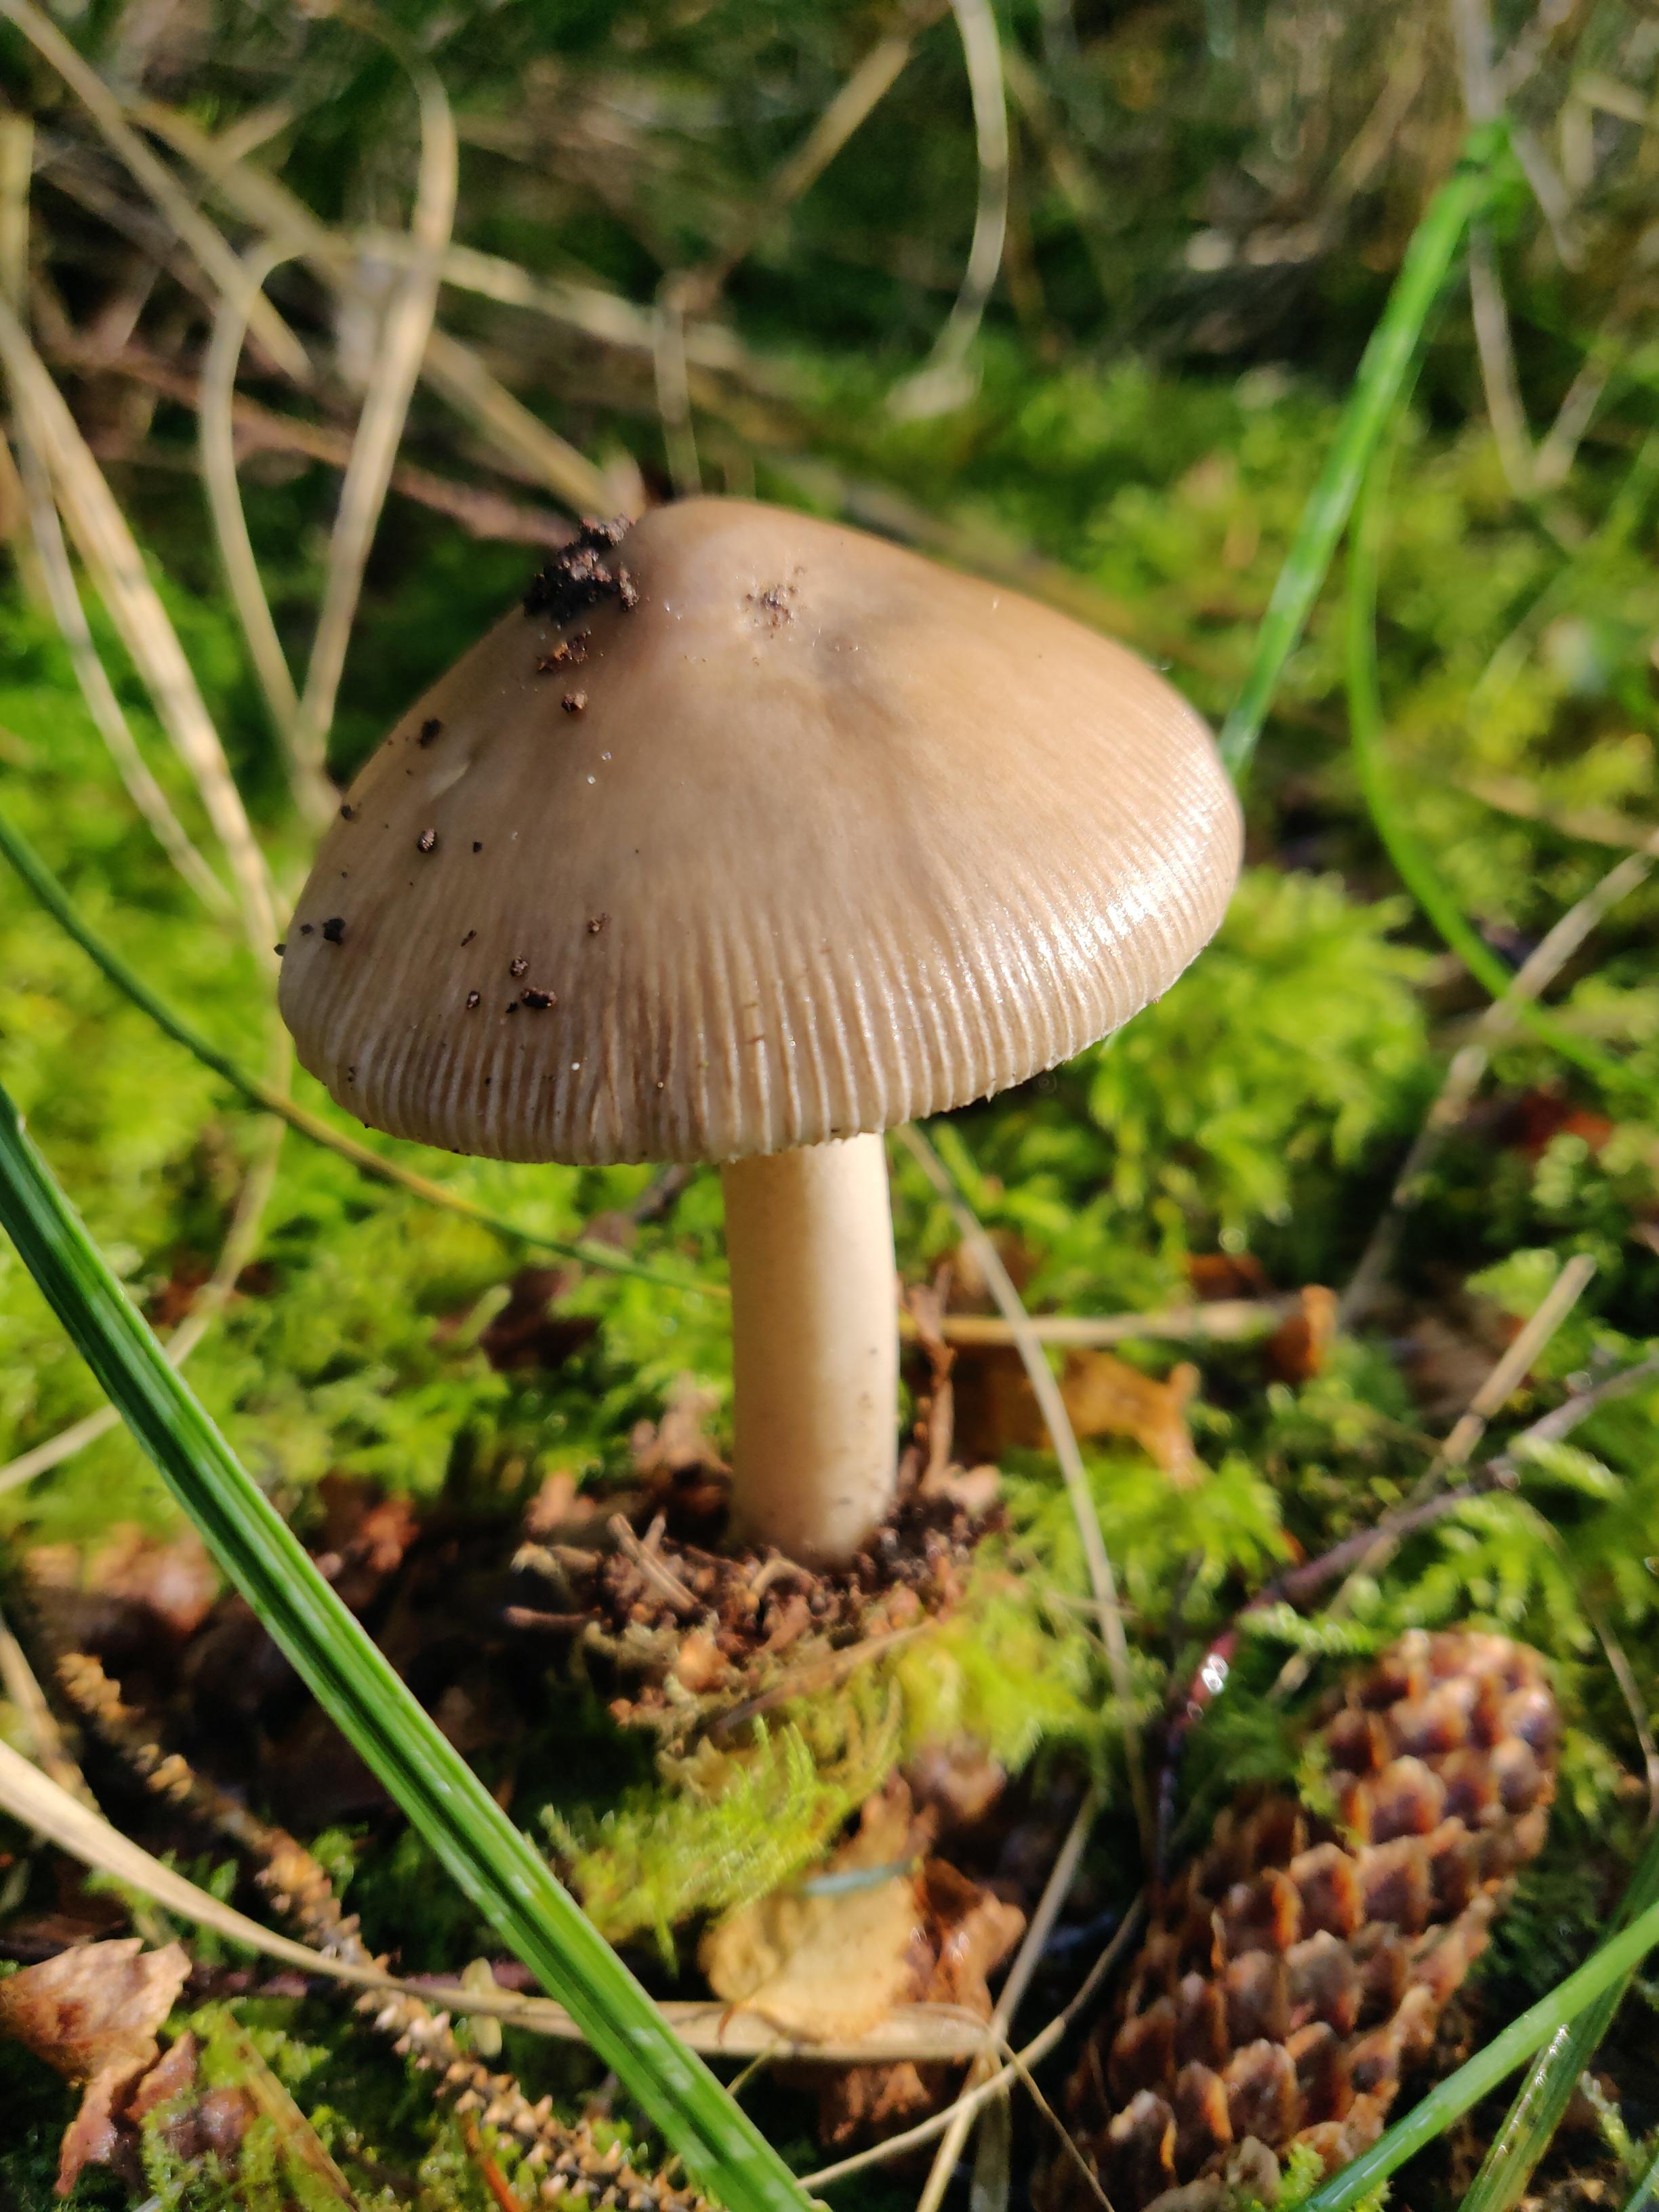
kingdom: Fungi
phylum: Basidiomycota
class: Agaricomycetes
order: Agaricales
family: Amanitaceae
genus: Amanita
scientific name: Amanita
